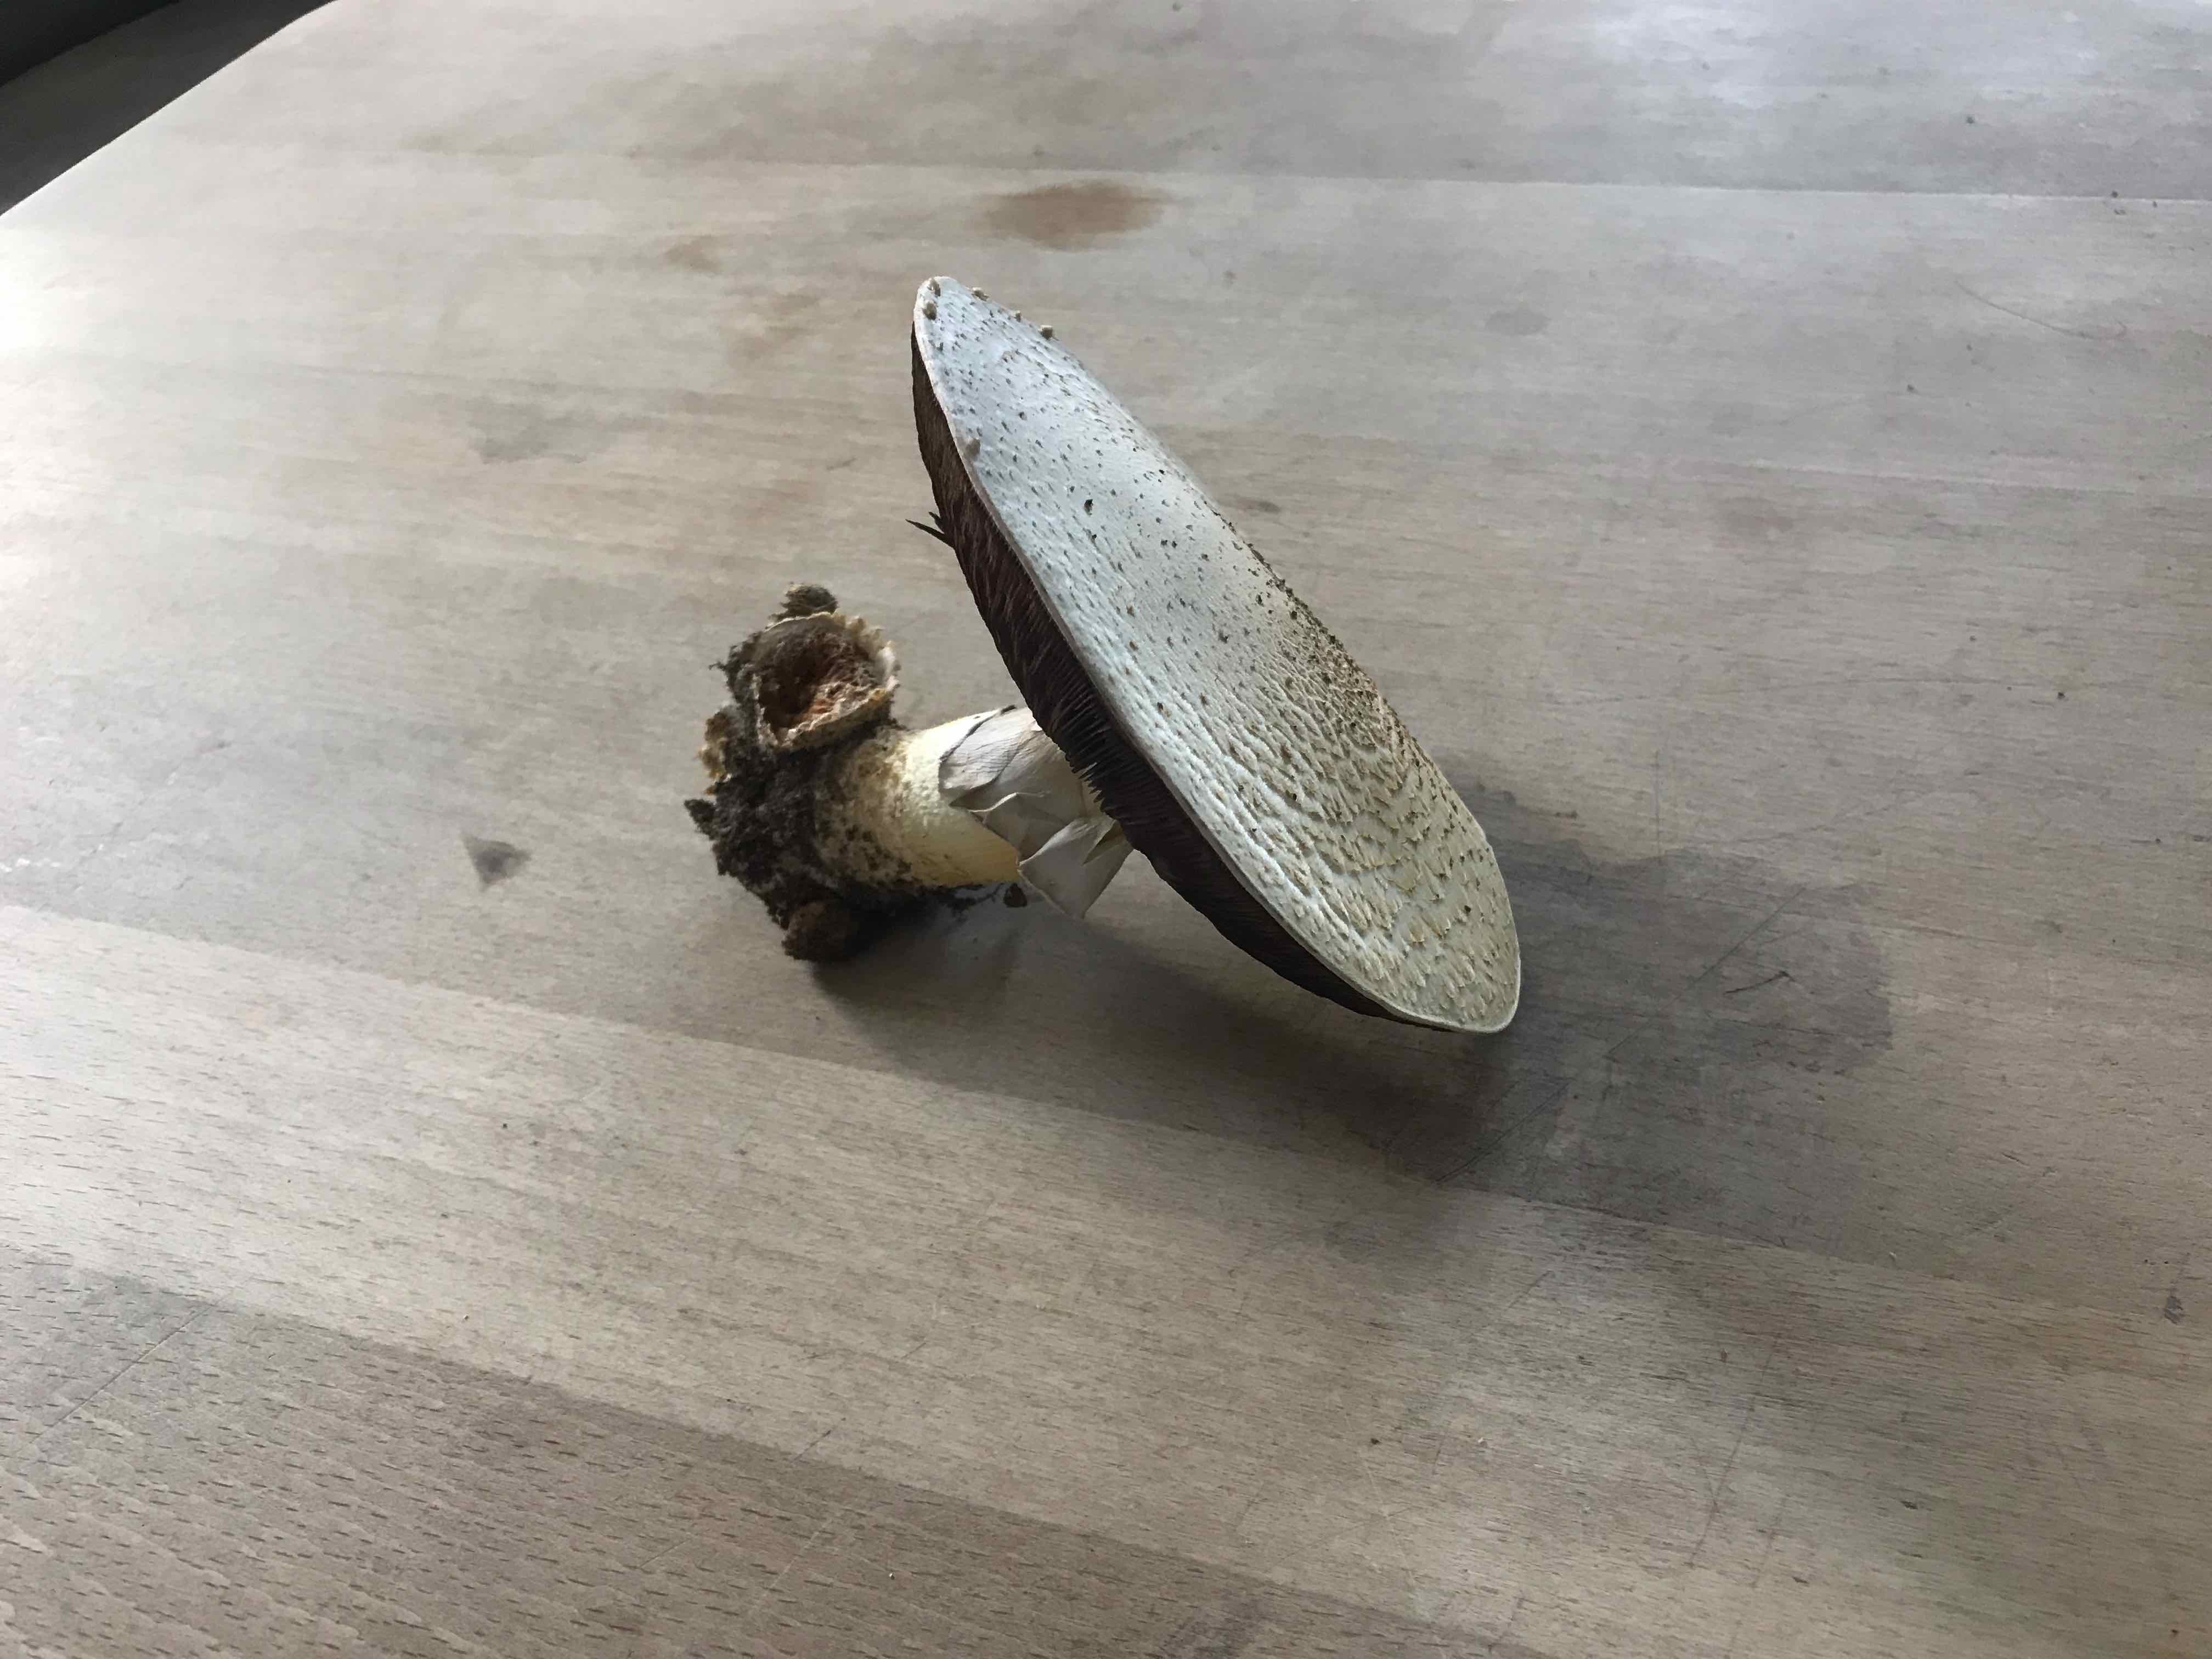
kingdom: Fungi
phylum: Basidiomycota
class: Agaricomycetes
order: Agaricales
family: Agaricaceae
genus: Agaricus
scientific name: Agaricus
